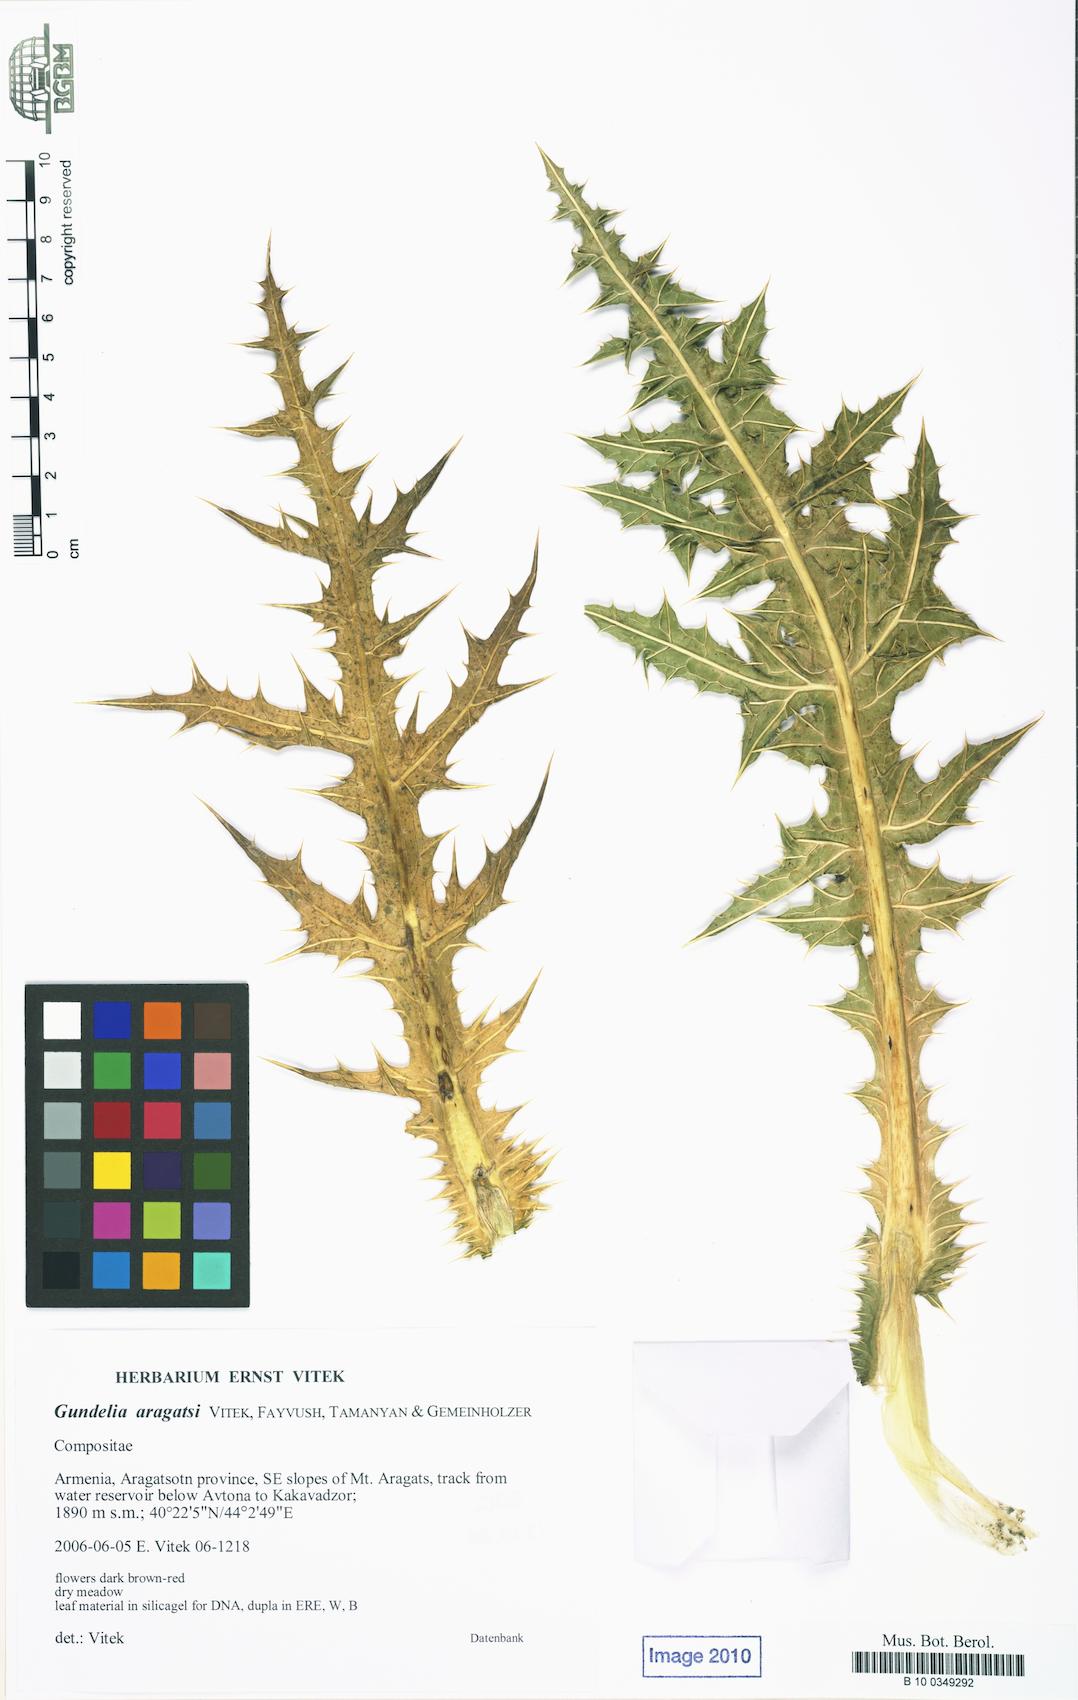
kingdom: Plantae
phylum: Tracheophyta
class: Magnoliopsida
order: Asterales
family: Asteraceae
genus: Gundelia
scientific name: Gundelia aragatsi
